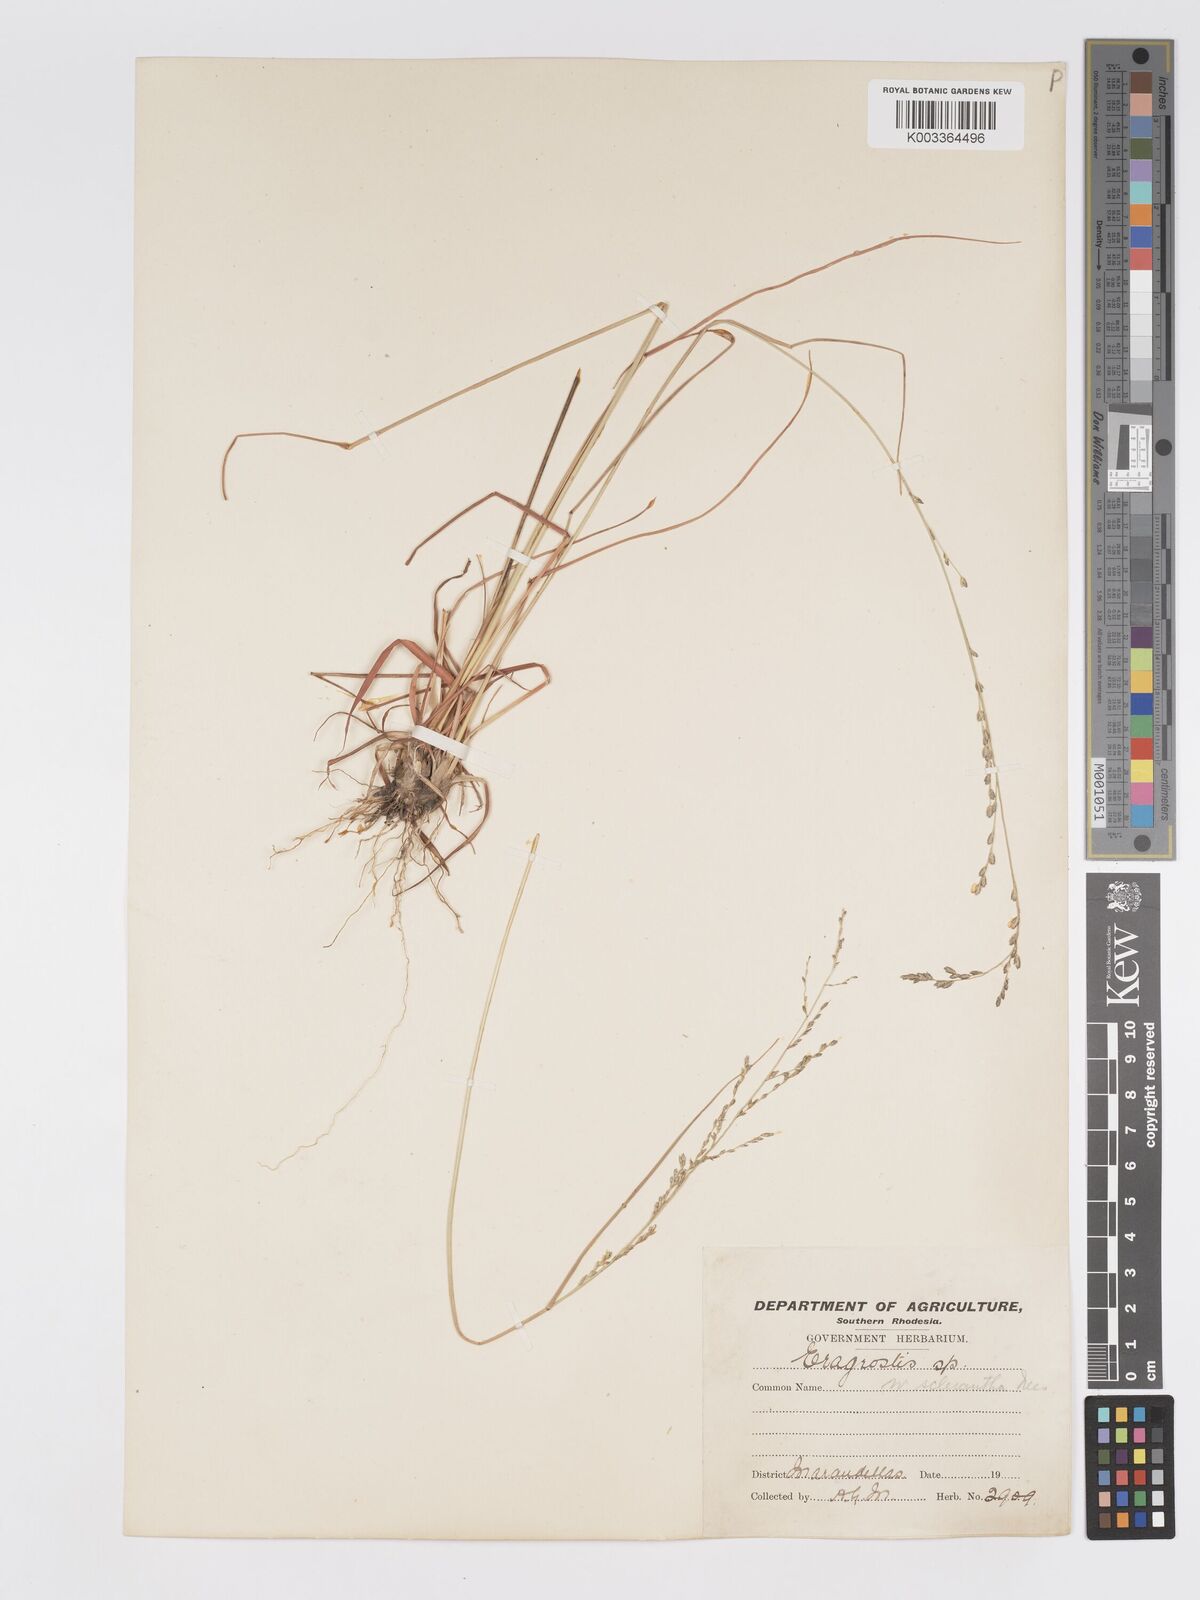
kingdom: Plantae
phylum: Tracheophyta
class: Liliopsida
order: Poales
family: Poaceae
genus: Eragrostis
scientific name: Eragrostis sclerantha
